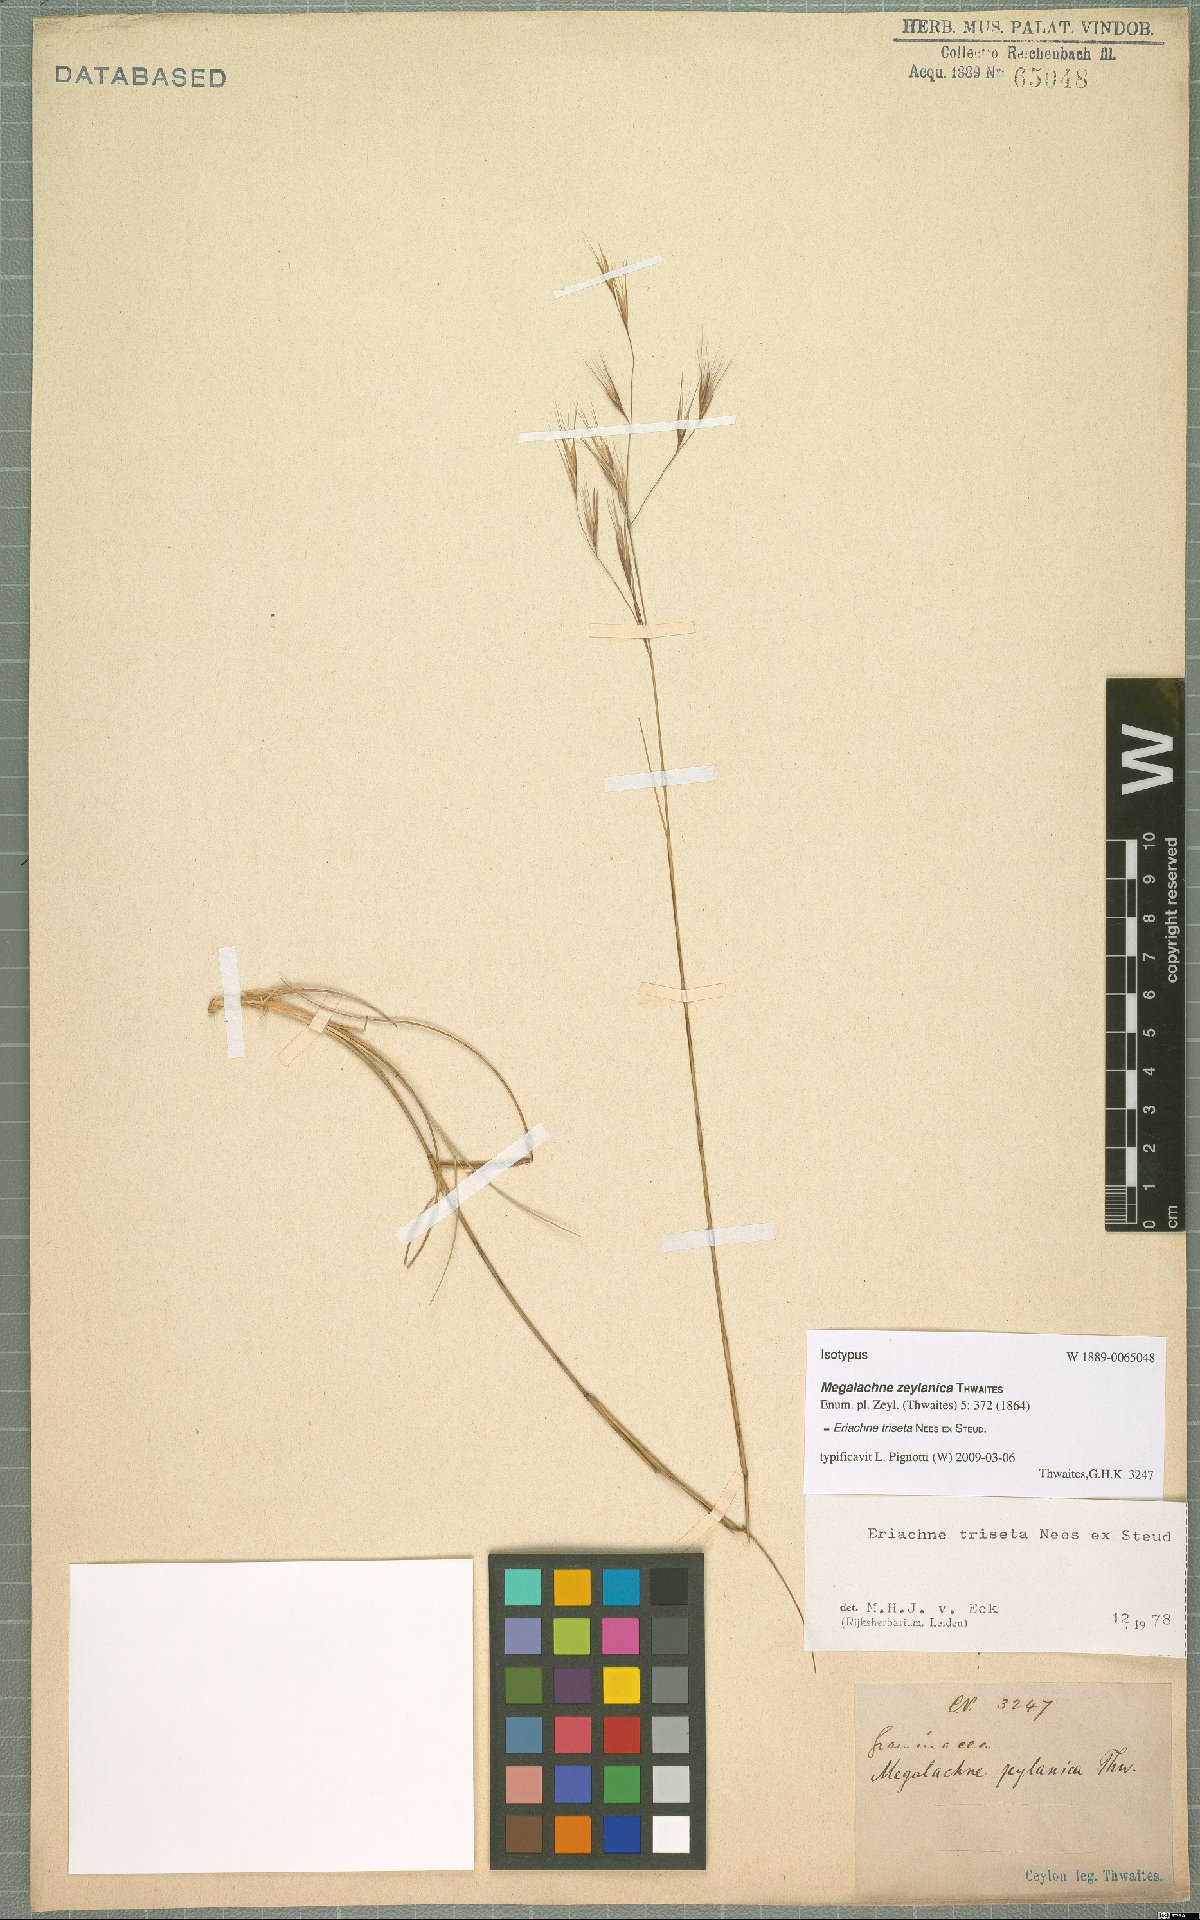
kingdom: Plantae
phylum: Tracheophyta
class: Liliopsida
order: Poales
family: Poaceae
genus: Eriachne
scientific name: Eriachne triseta
